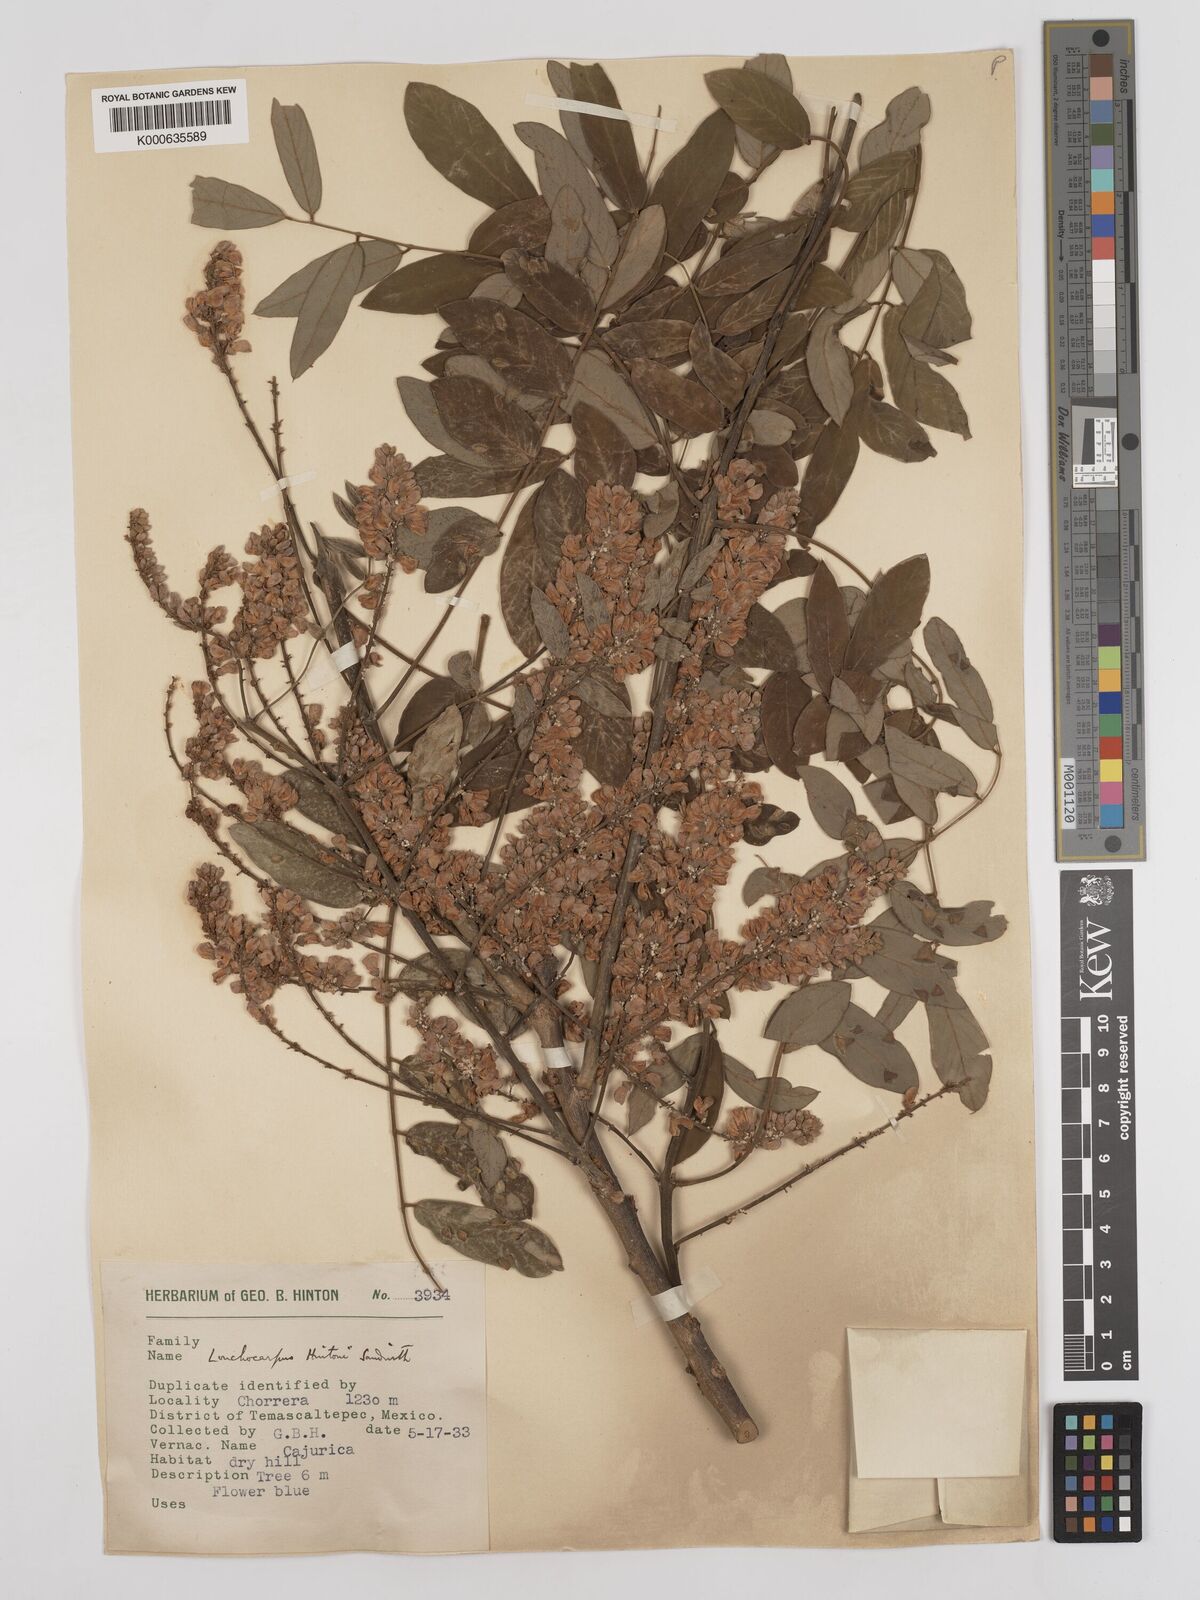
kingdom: Plantae
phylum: Tracheophyta
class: Magnoliopsida
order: Fabales
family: Fabaceae
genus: Lonchocarpus
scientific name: Lonchocarpus hintonii
